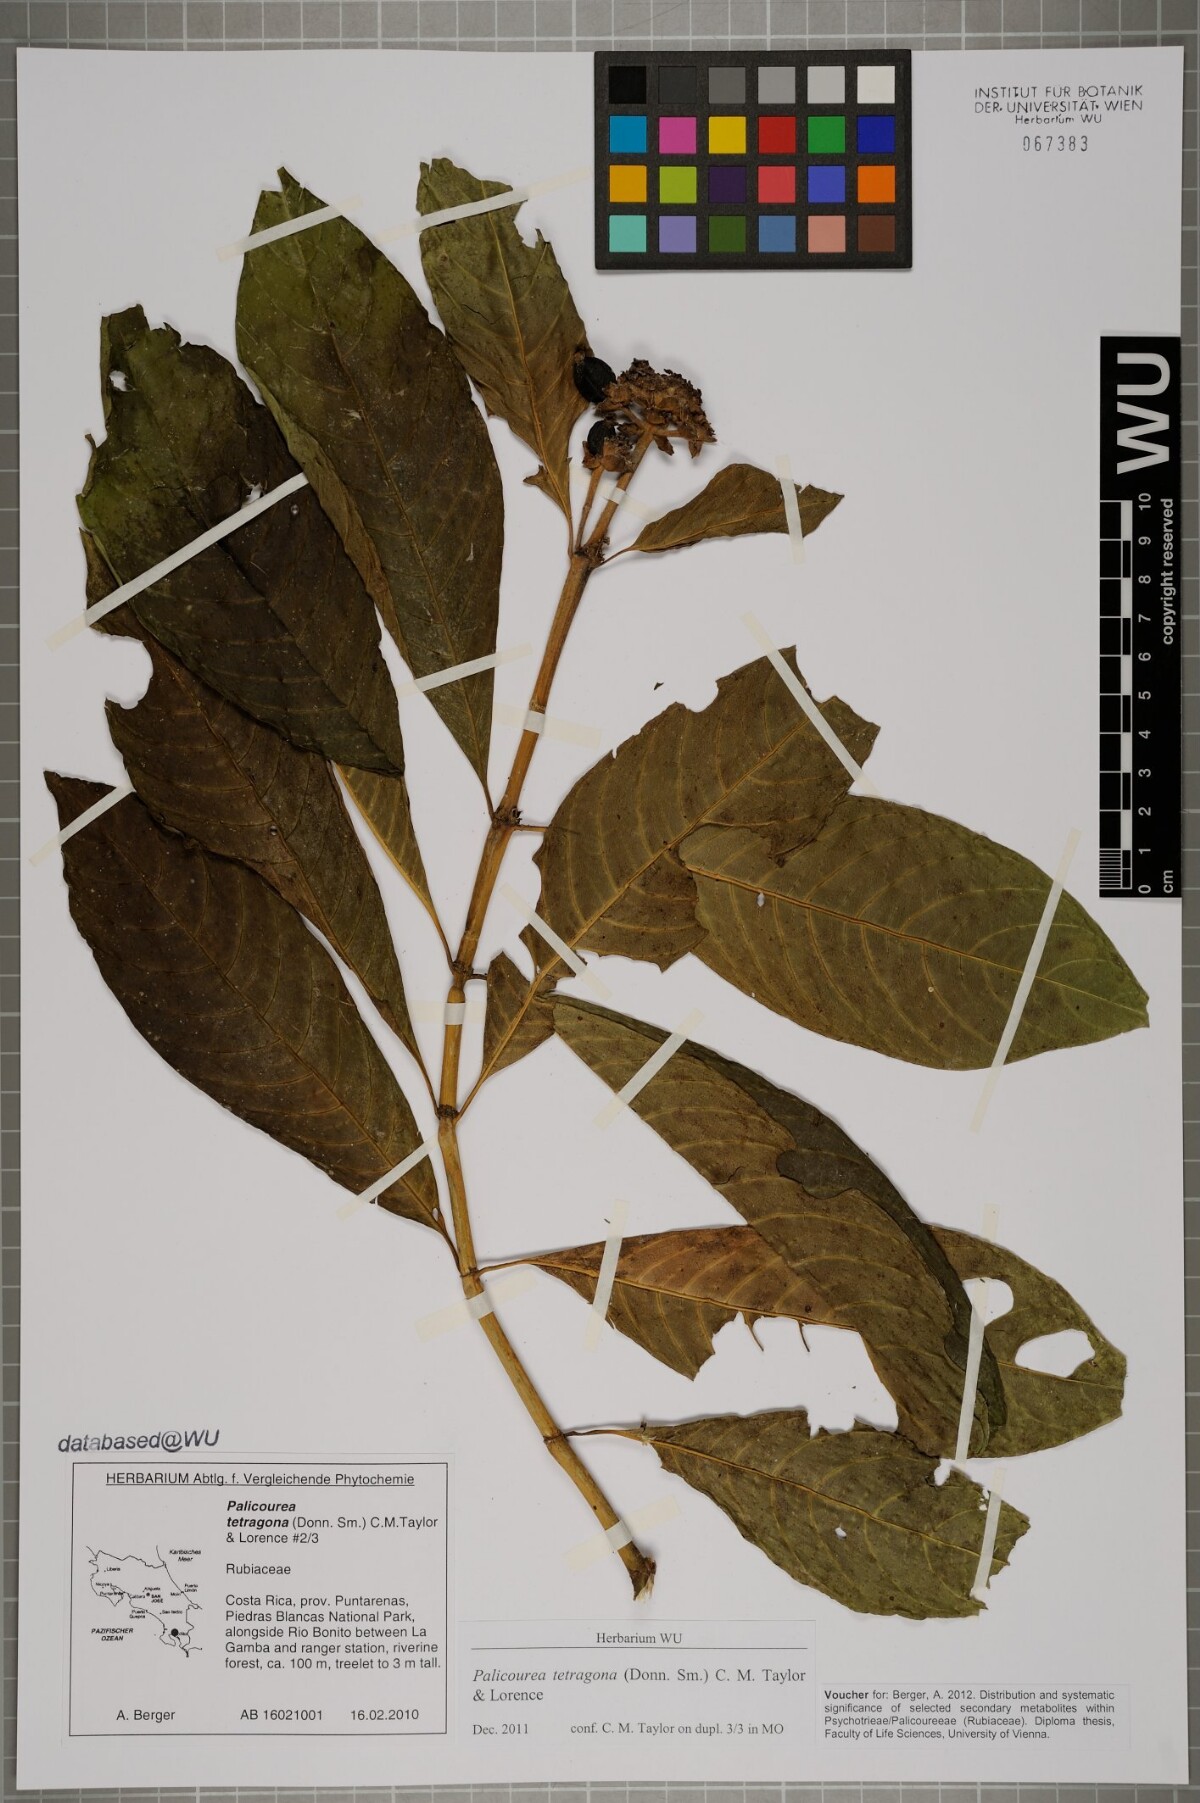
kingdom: Plantae
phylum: Tracheophyta
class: Magnoliopsida
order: Gentianales
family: Rubiaceae
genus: Palicourea
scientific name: Palicourea tetragona
